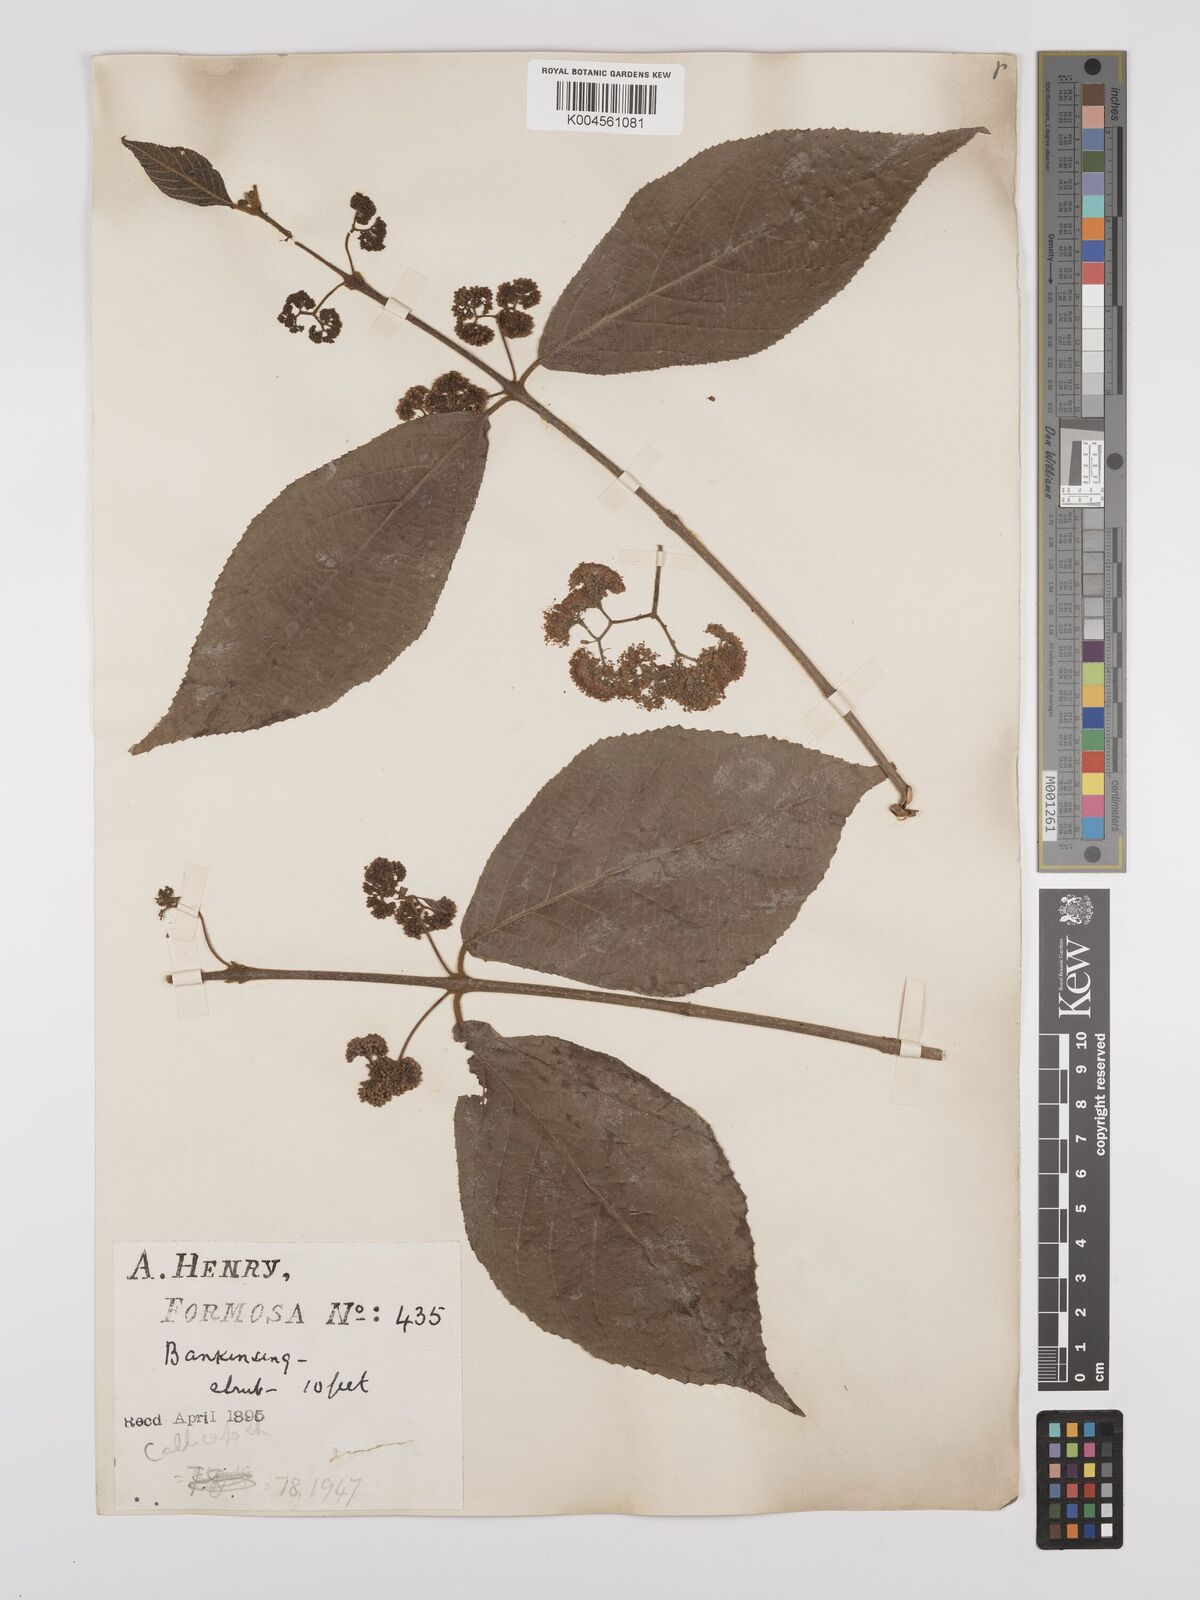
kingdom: Plantae
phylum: Tracheophyta
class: Magnoliopsida
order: Lamiales
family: Lamiaceae
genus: Callicarpa
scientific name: Callicarpa japonica
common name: Japanese beauty-berry
